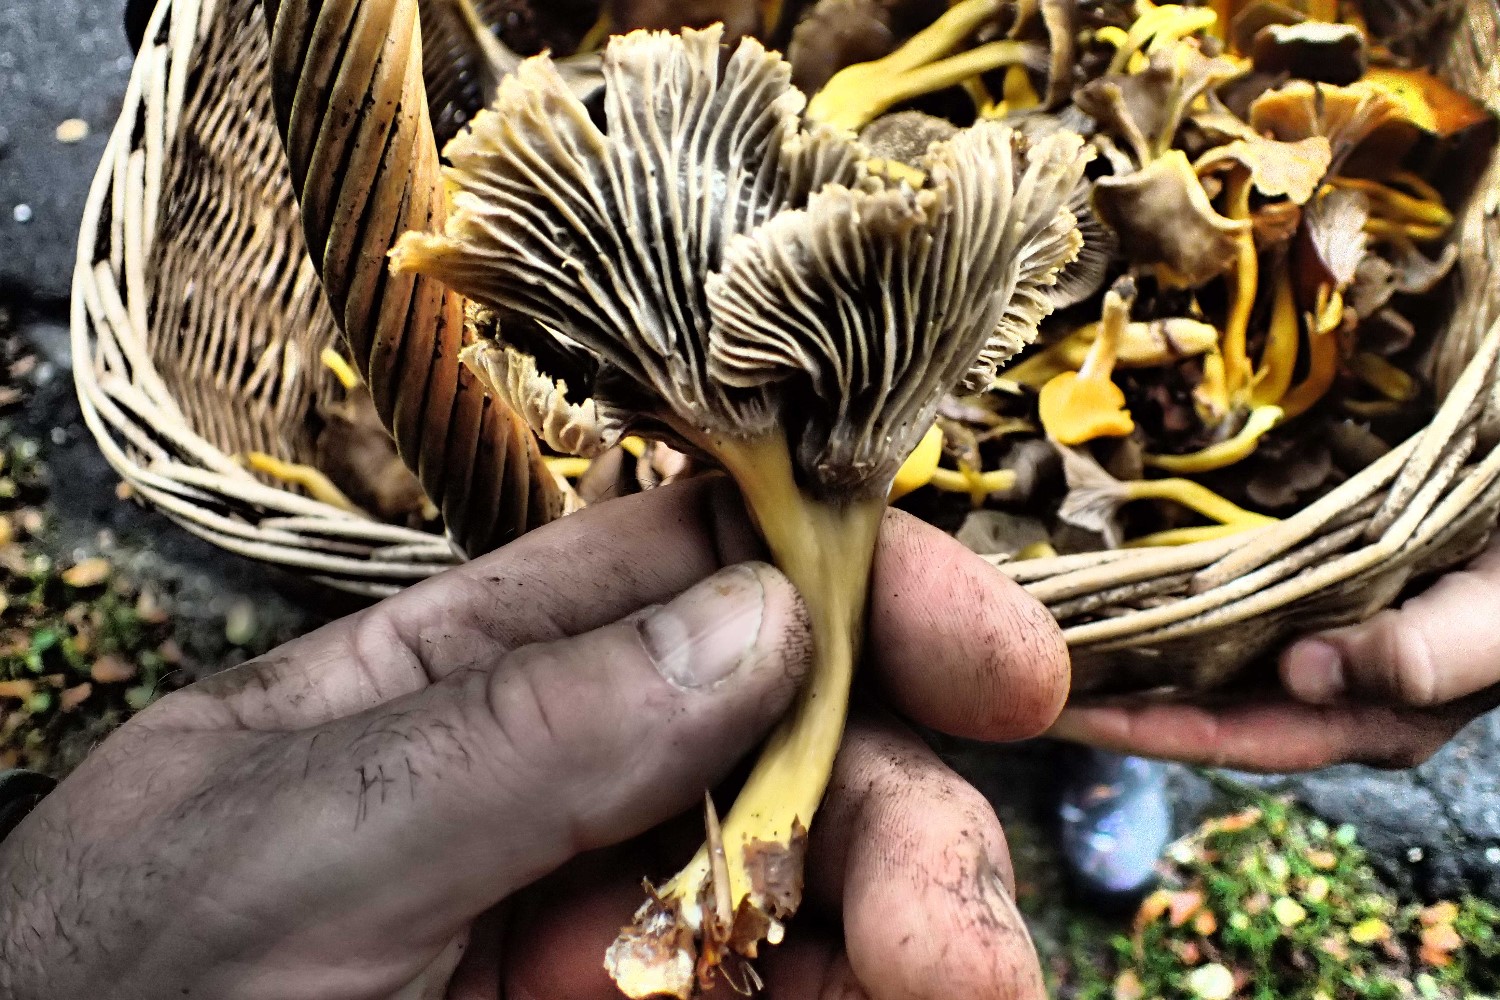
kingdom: Fungi
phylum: Basidiomycota
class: Agaricomycetes
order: Cantharellales
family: Hydnaceae
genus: Craterellus
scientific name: Craterellus tubaeformis
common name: tragt-kantarel
